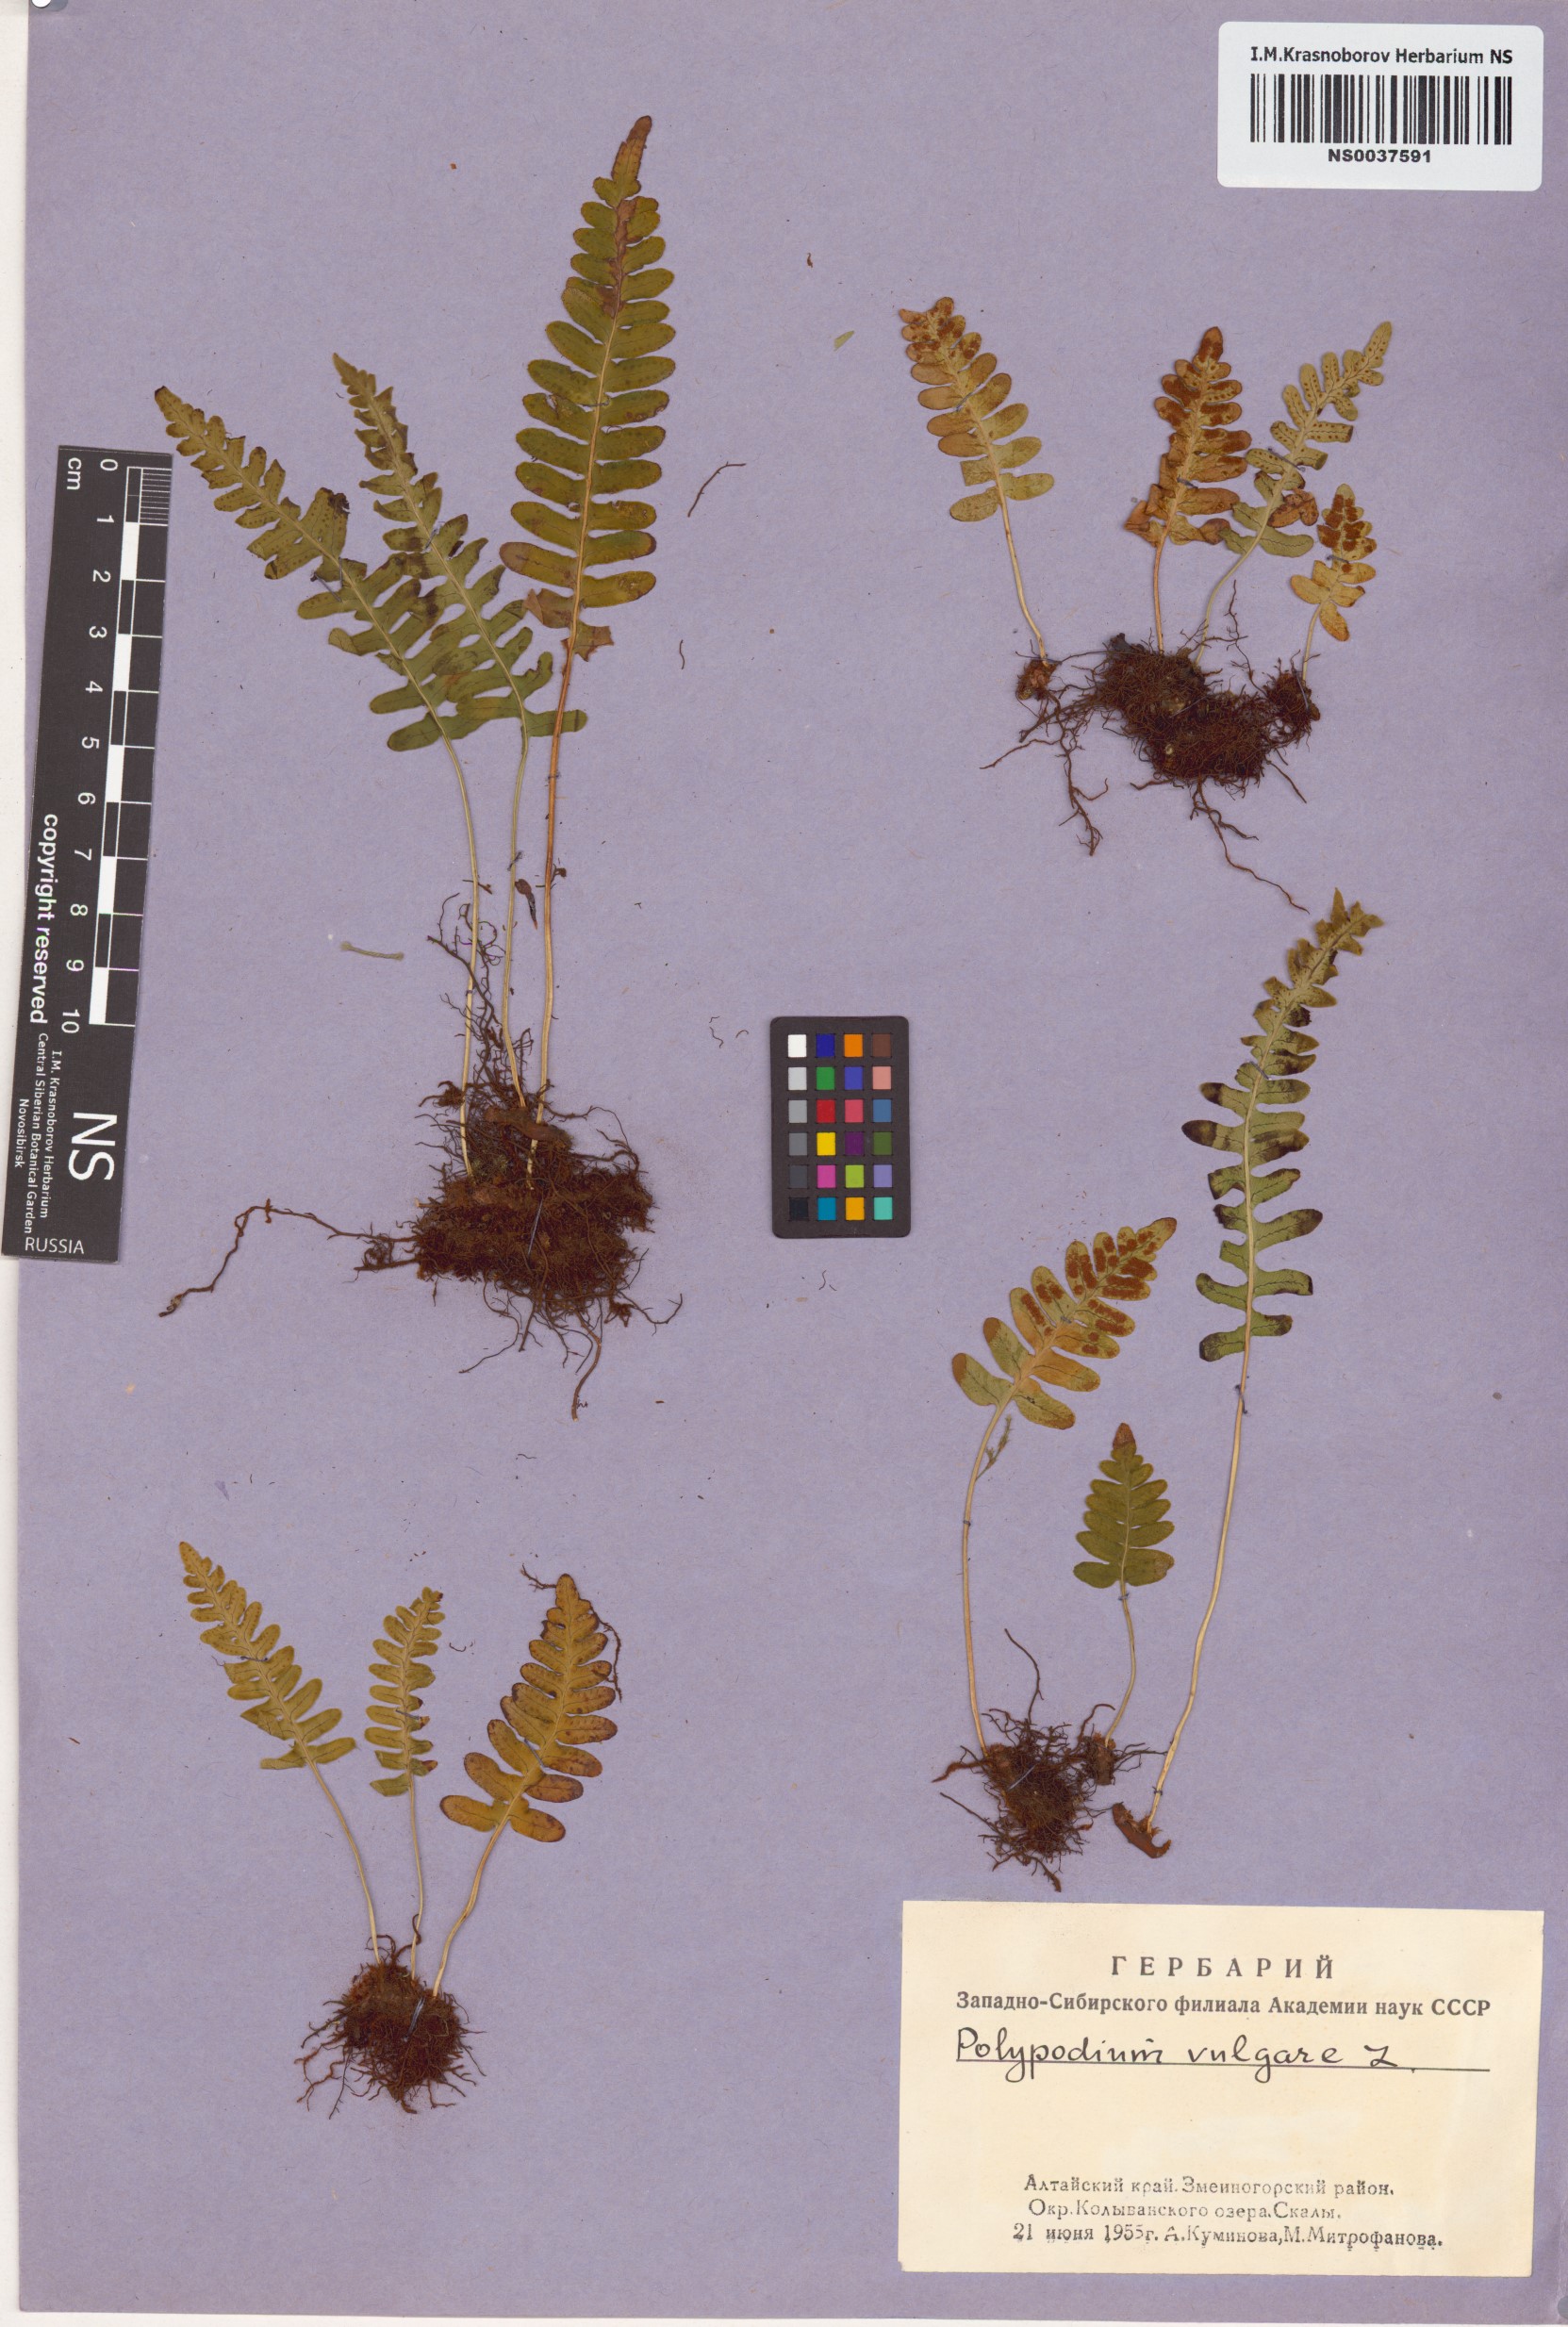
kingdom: Plantae
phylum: Tracheophyta
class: Polypodiopsida
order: Polypodiales
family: Polypodiaceae
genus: Polypodium
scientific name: Polypodium vulgare
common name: Common polypody
